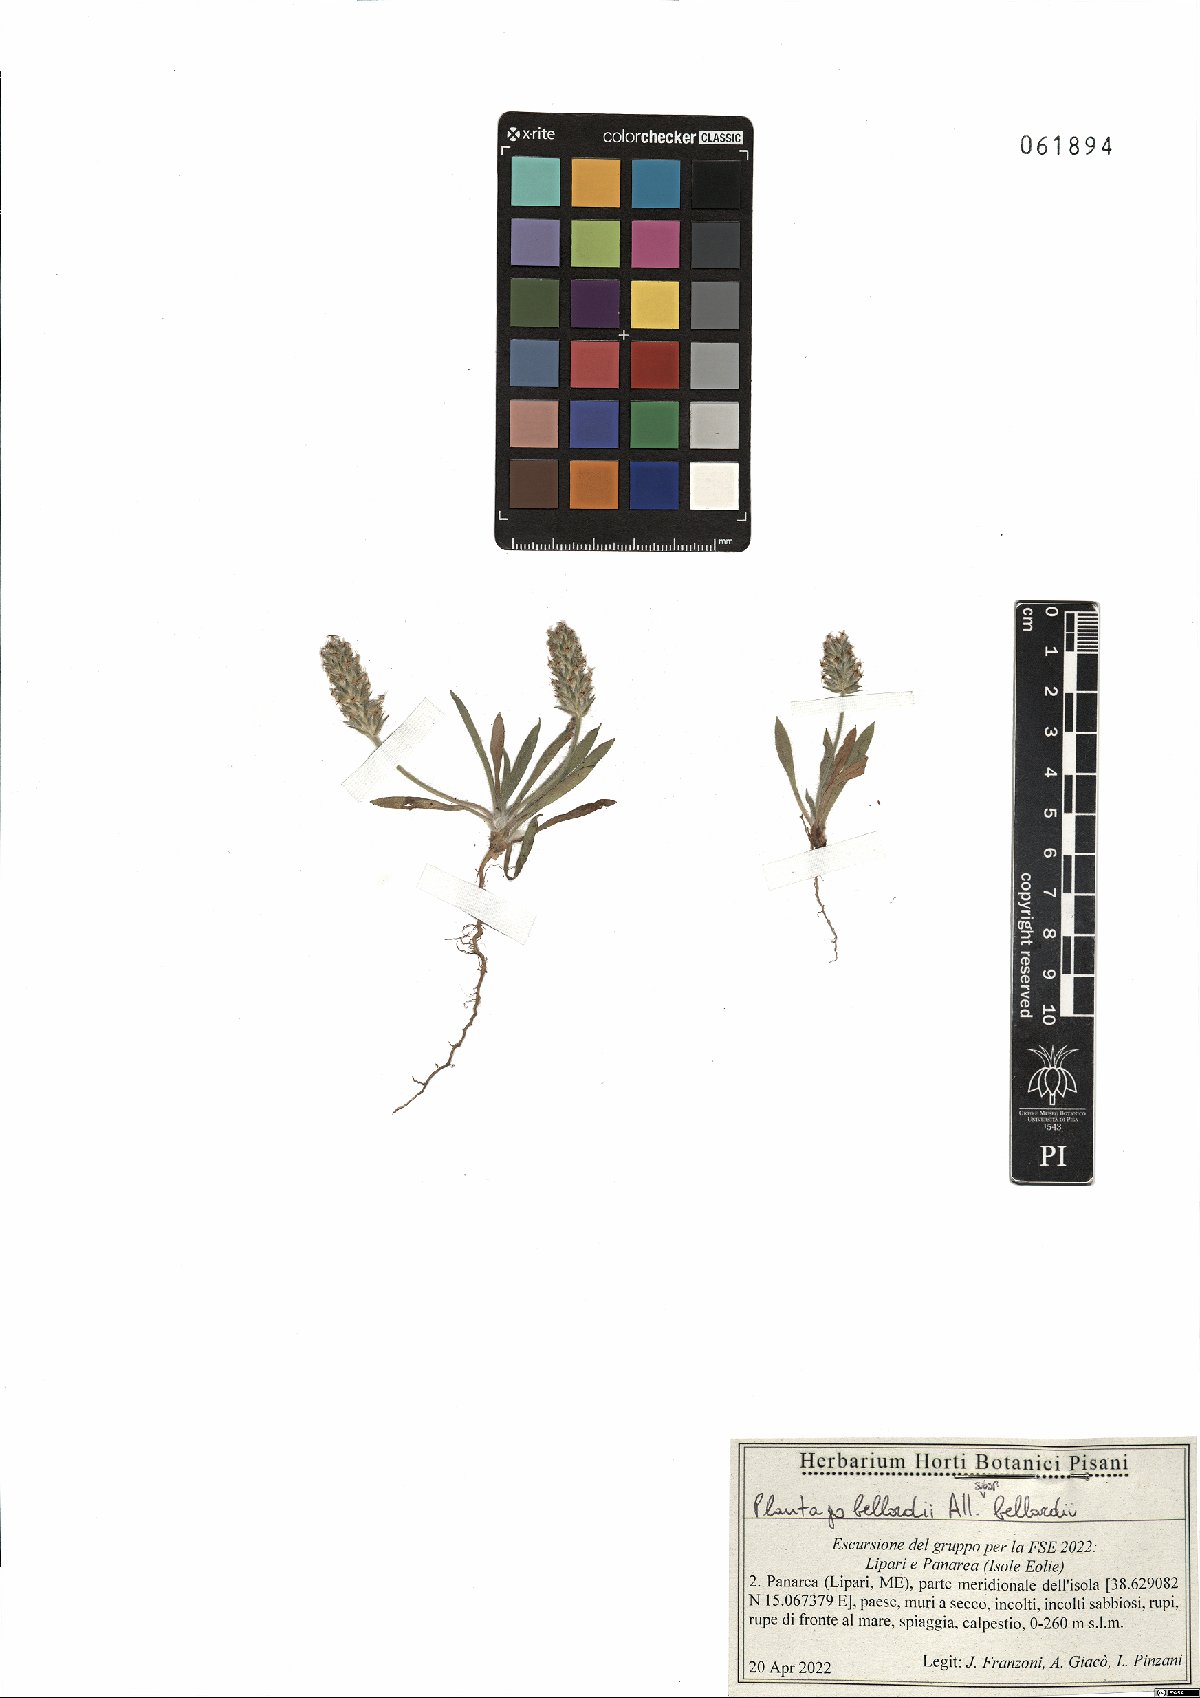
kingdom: Plantae
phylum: Tracheophyta
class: Magnoliopsida
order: Lamiales
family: Plantaginaceae
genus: Plantago
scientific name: Plantago bellardii
